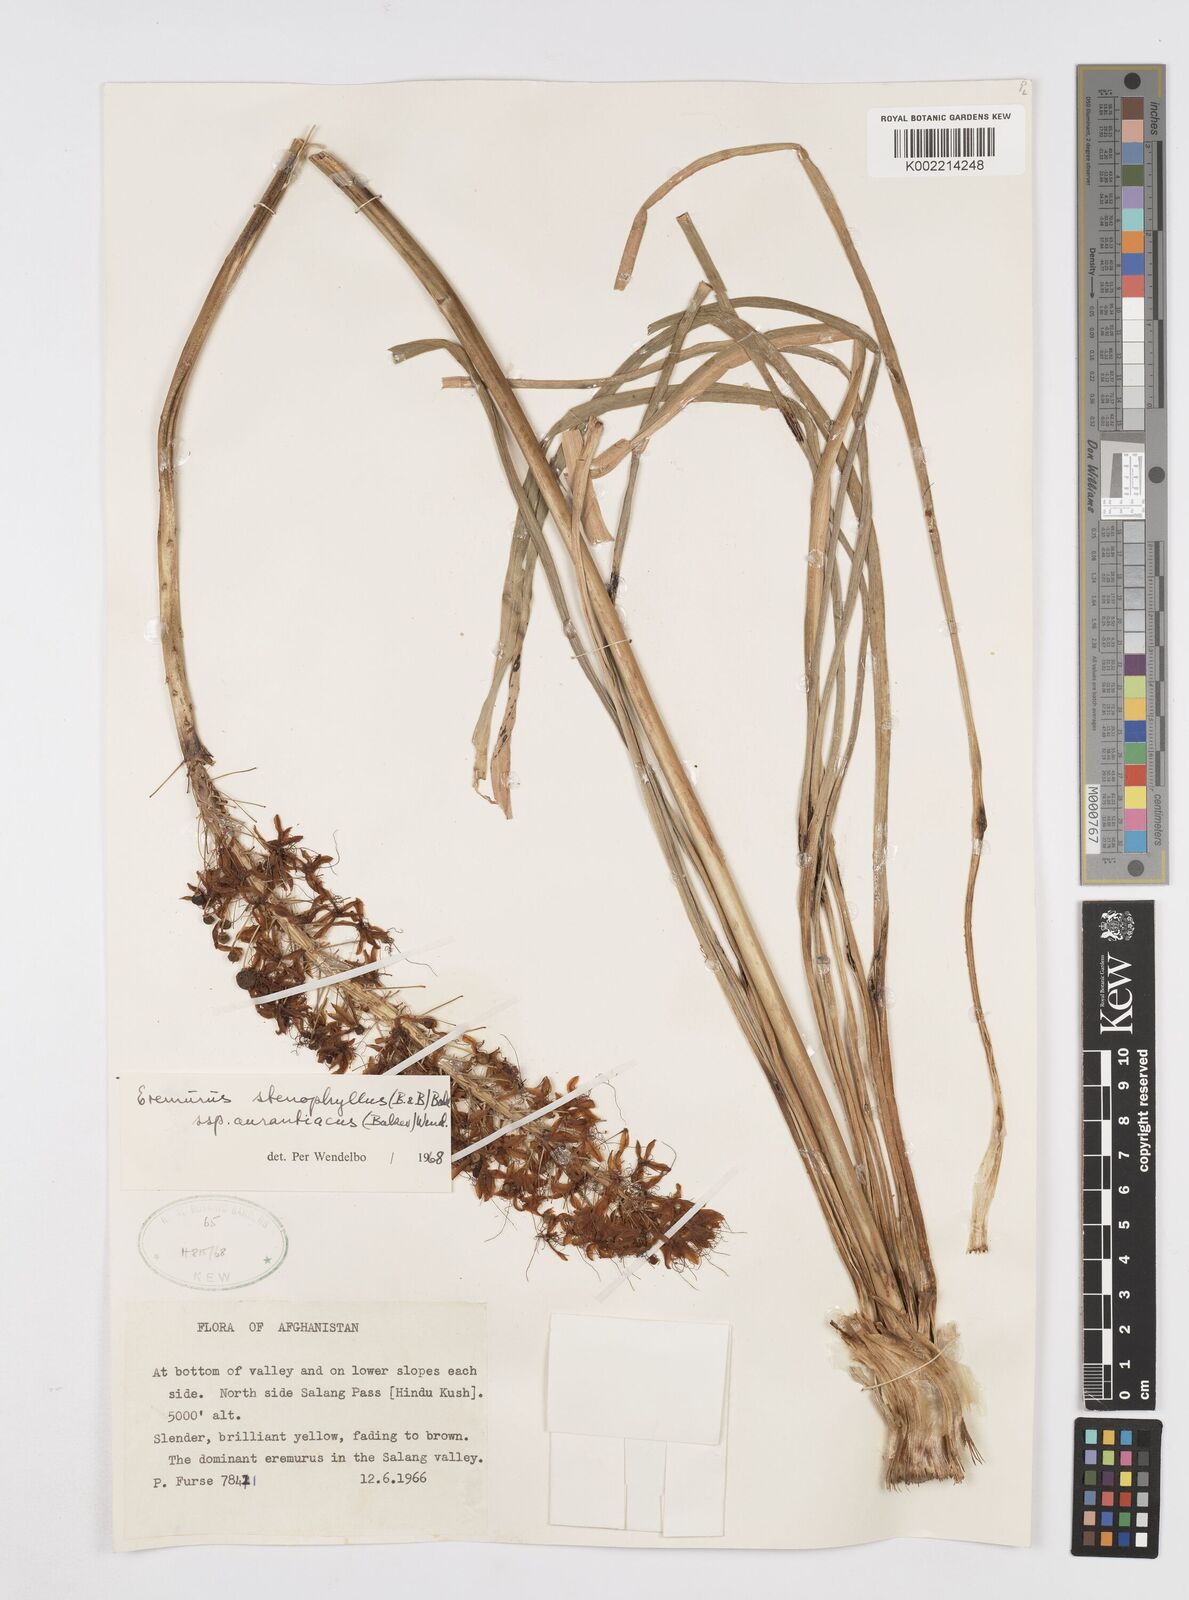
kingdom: Plantae
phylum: Tracheophyta
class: Liliopsida
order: Asparagales
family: Asphodelaceae
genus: Eremurus
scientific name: Eremurus stenophyllus
